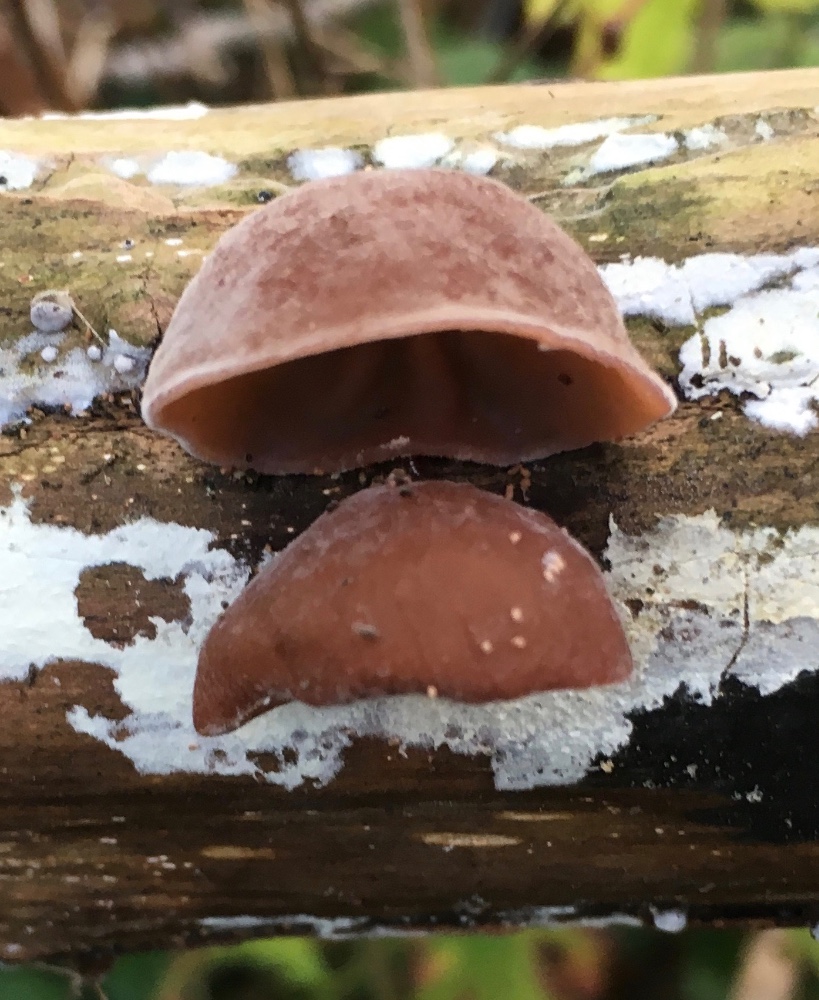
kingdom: Fungi
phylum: Basidiomycota
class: Agaricomycetes
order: Auriculariales
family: Auriculariaceae
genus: Auricularia
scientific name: Auricularia auricula-judae
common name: almindelig judasøre
